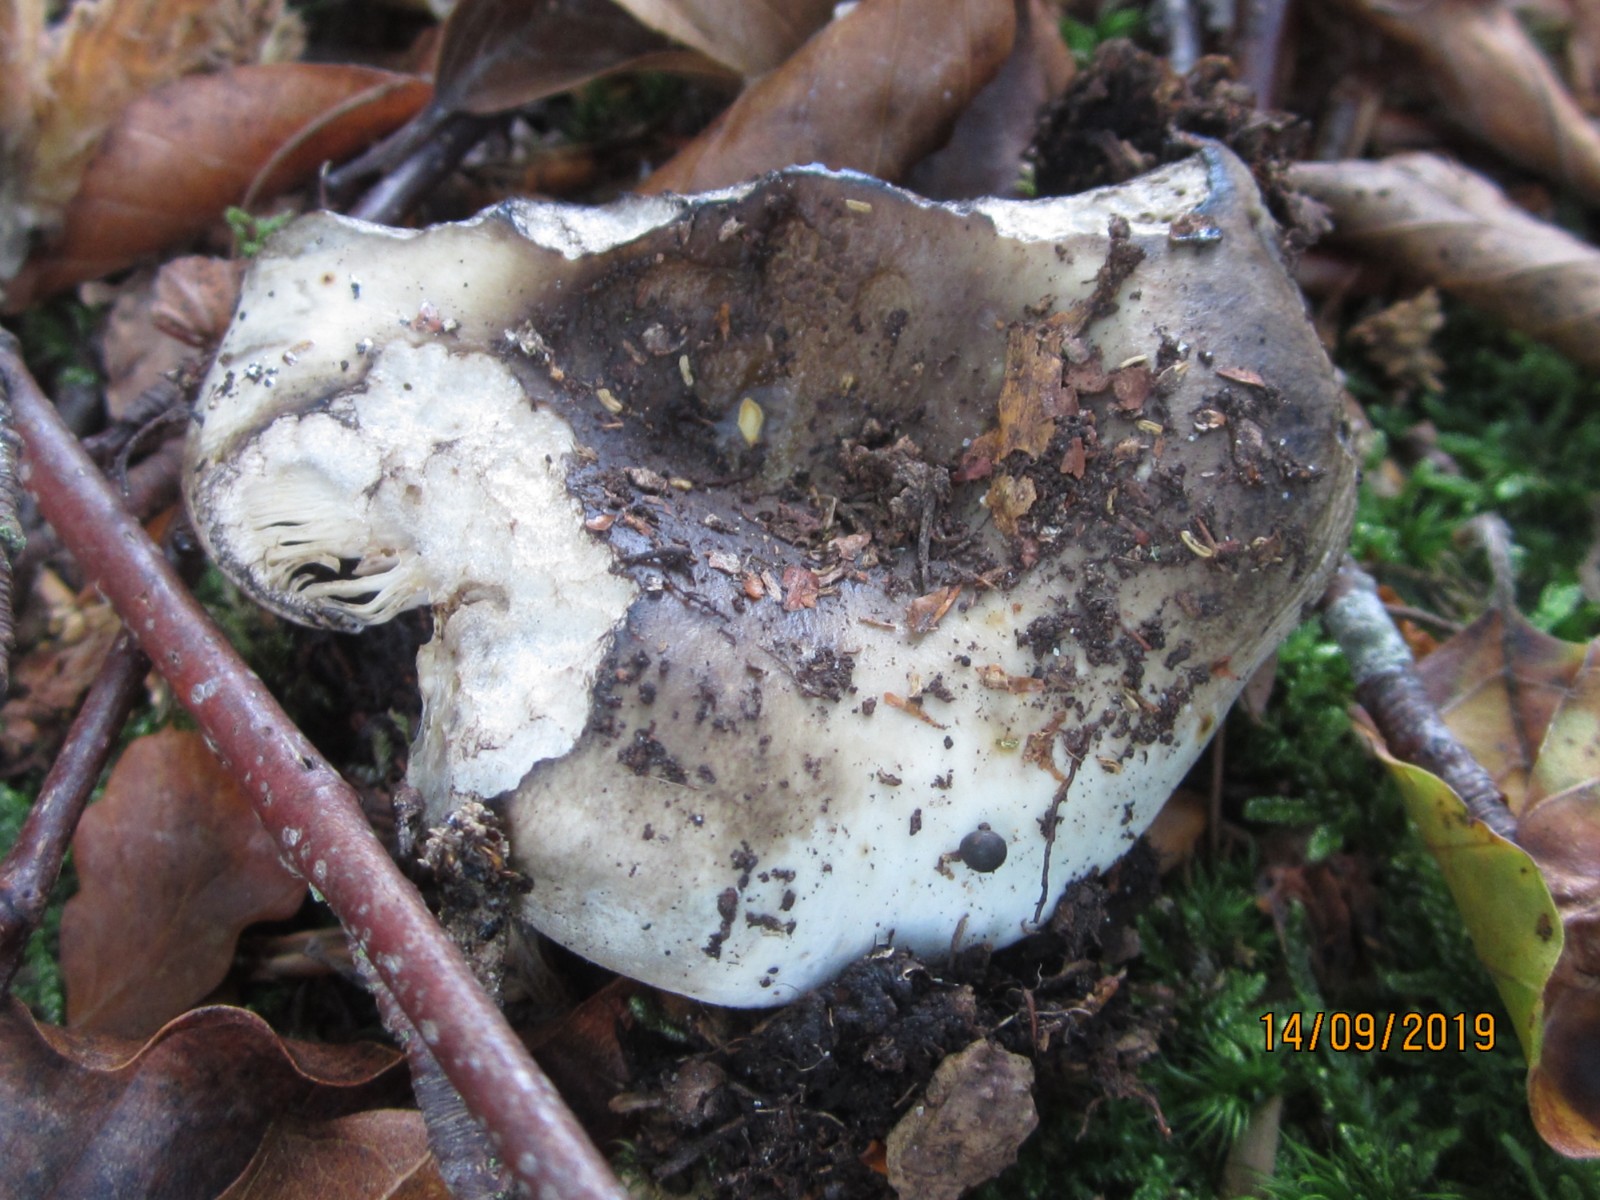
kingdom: Fungi
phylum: Basidiomycota
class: Agaricomycetes
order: Russulales
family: Russulaceae
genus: Russula
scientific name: Russula densifolia
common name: tætbladet skørhat
